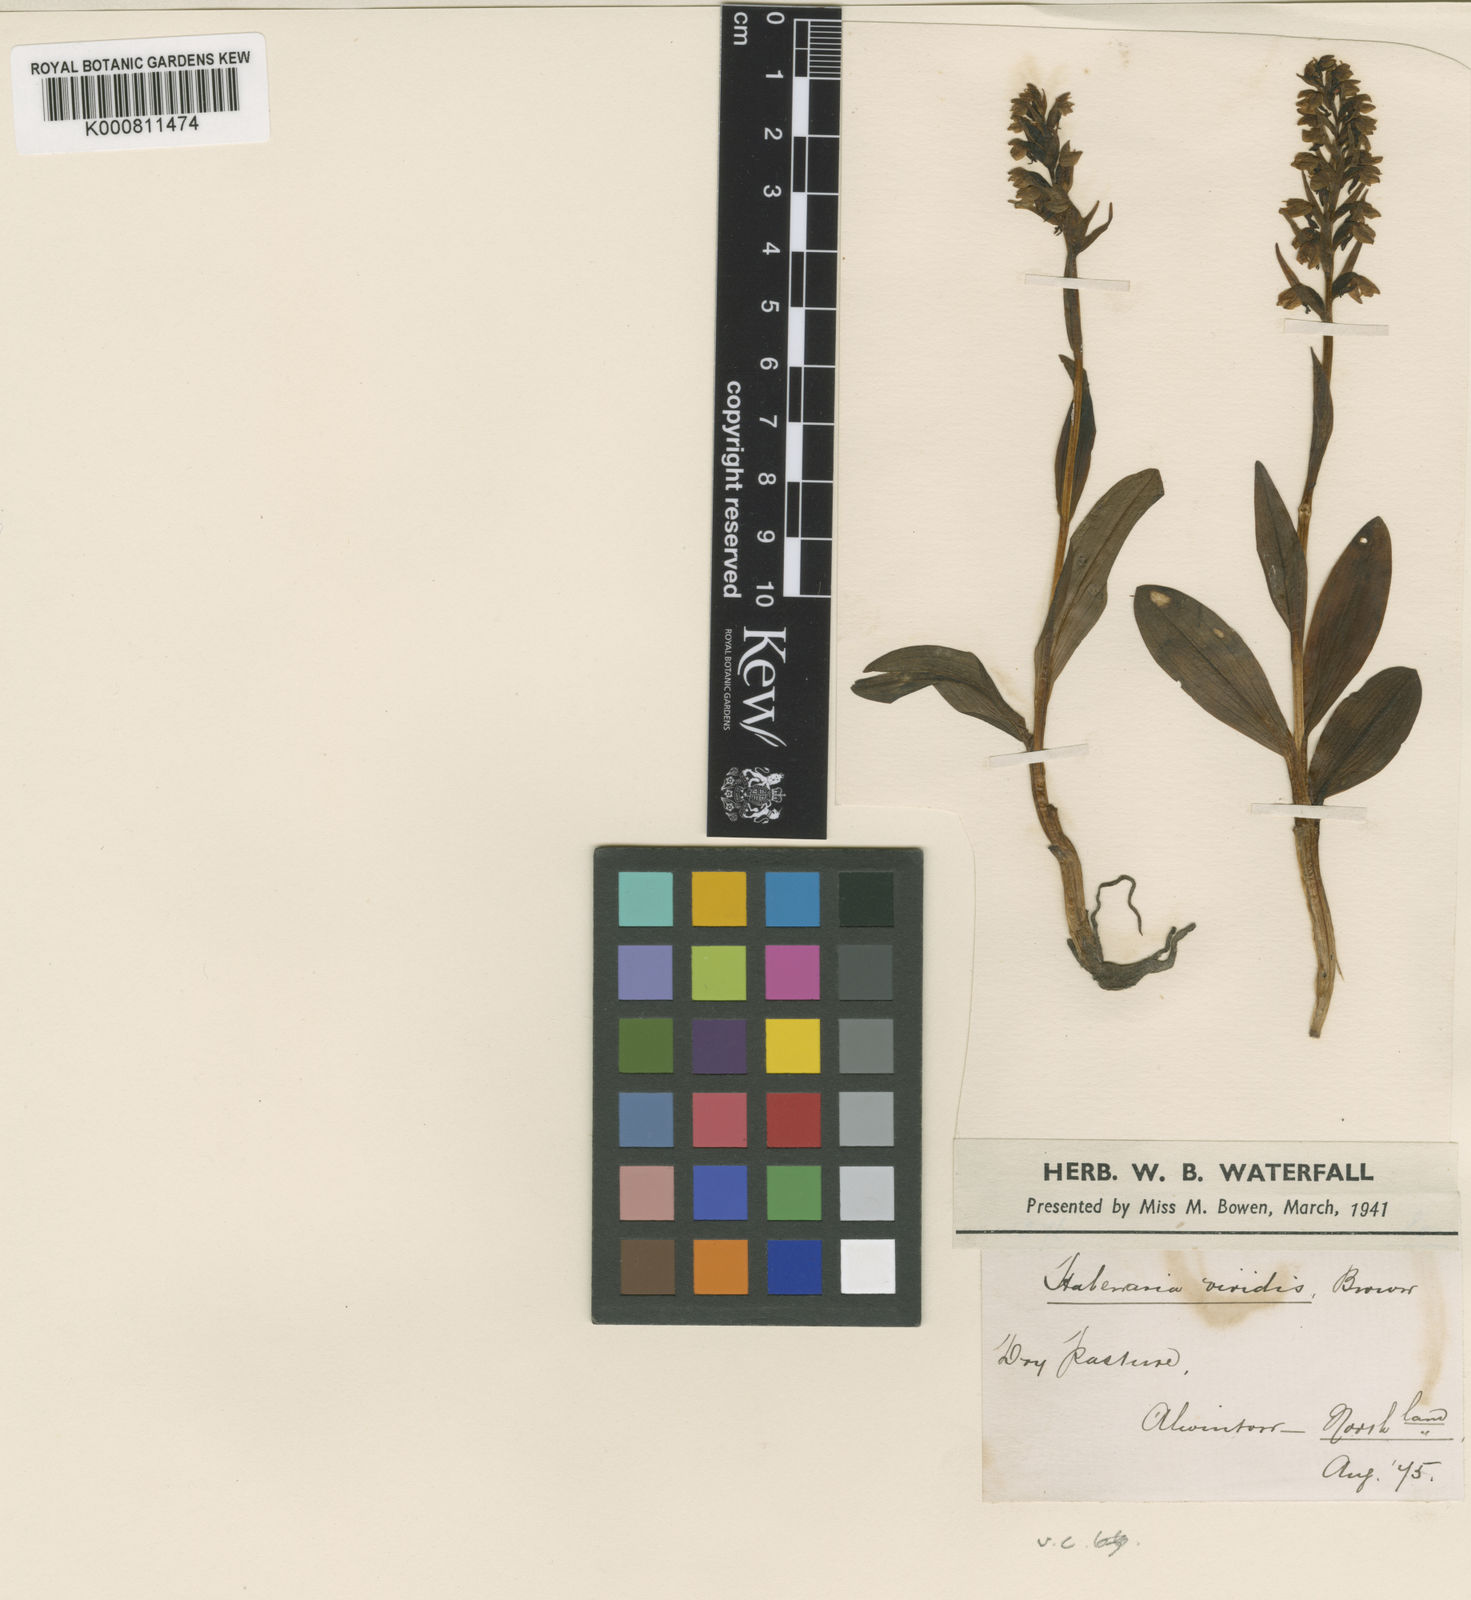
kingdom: Plantae
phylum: Tracheophyta
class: Liliopsida
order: Asparagales
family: Orchidaceae
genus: Dactylorhiza
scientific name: Dactylorhiza viridis
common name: Longbract frog orchid
